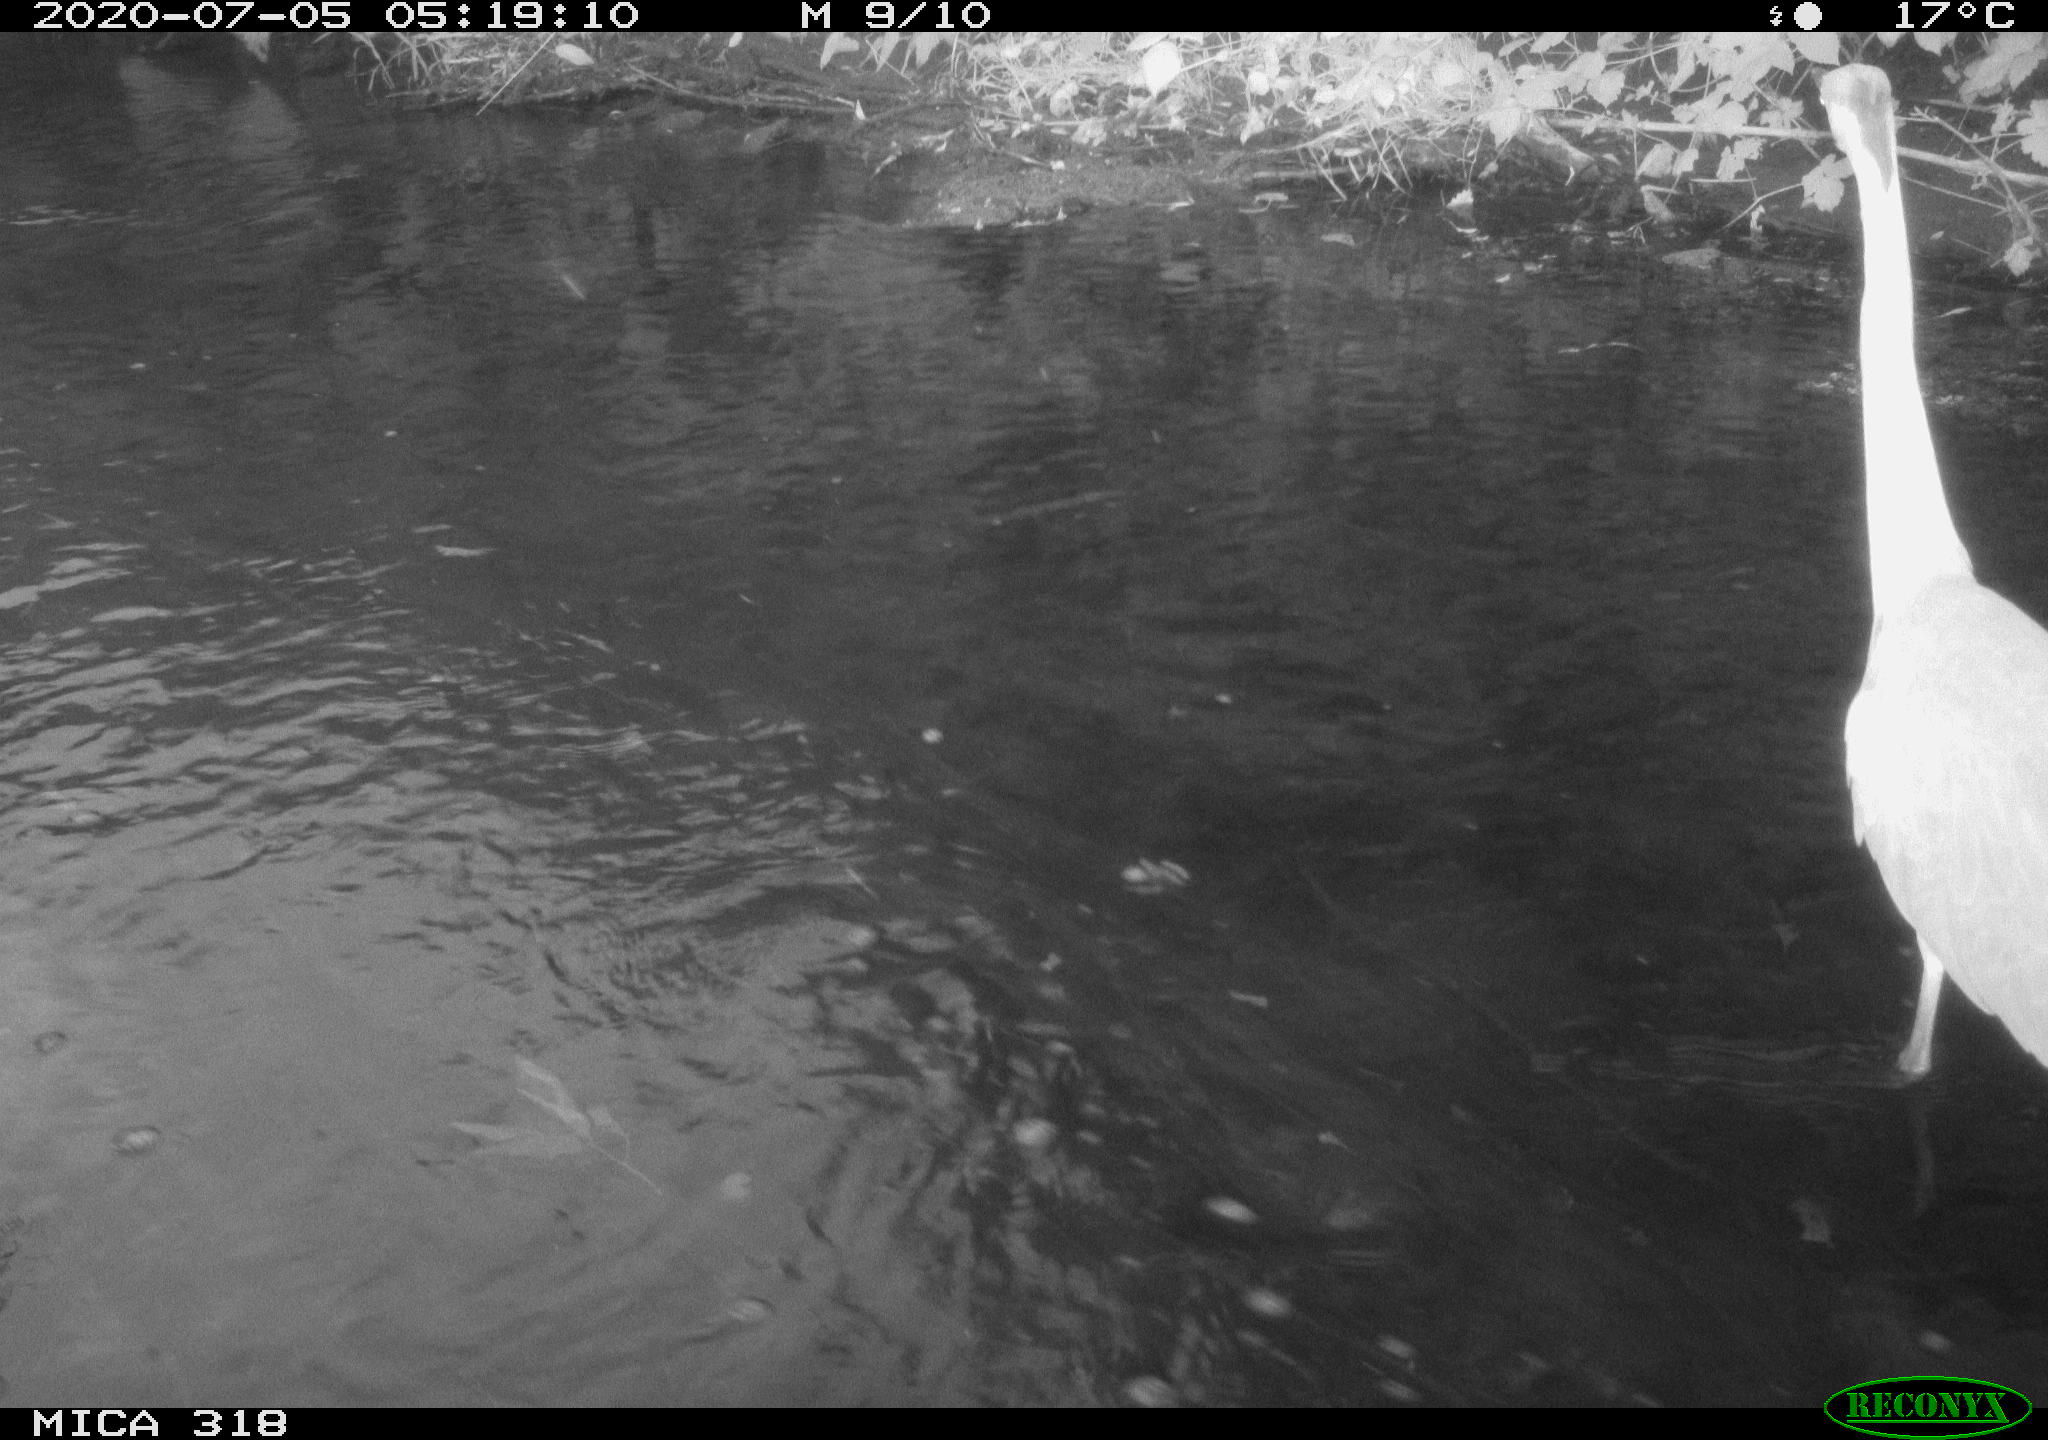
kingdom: Animalia
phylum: Chordata
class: Aves
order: Pelecaniformes
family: Ardeidae
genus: Ardea
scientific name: Ardea cinerea
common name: Grey heron
